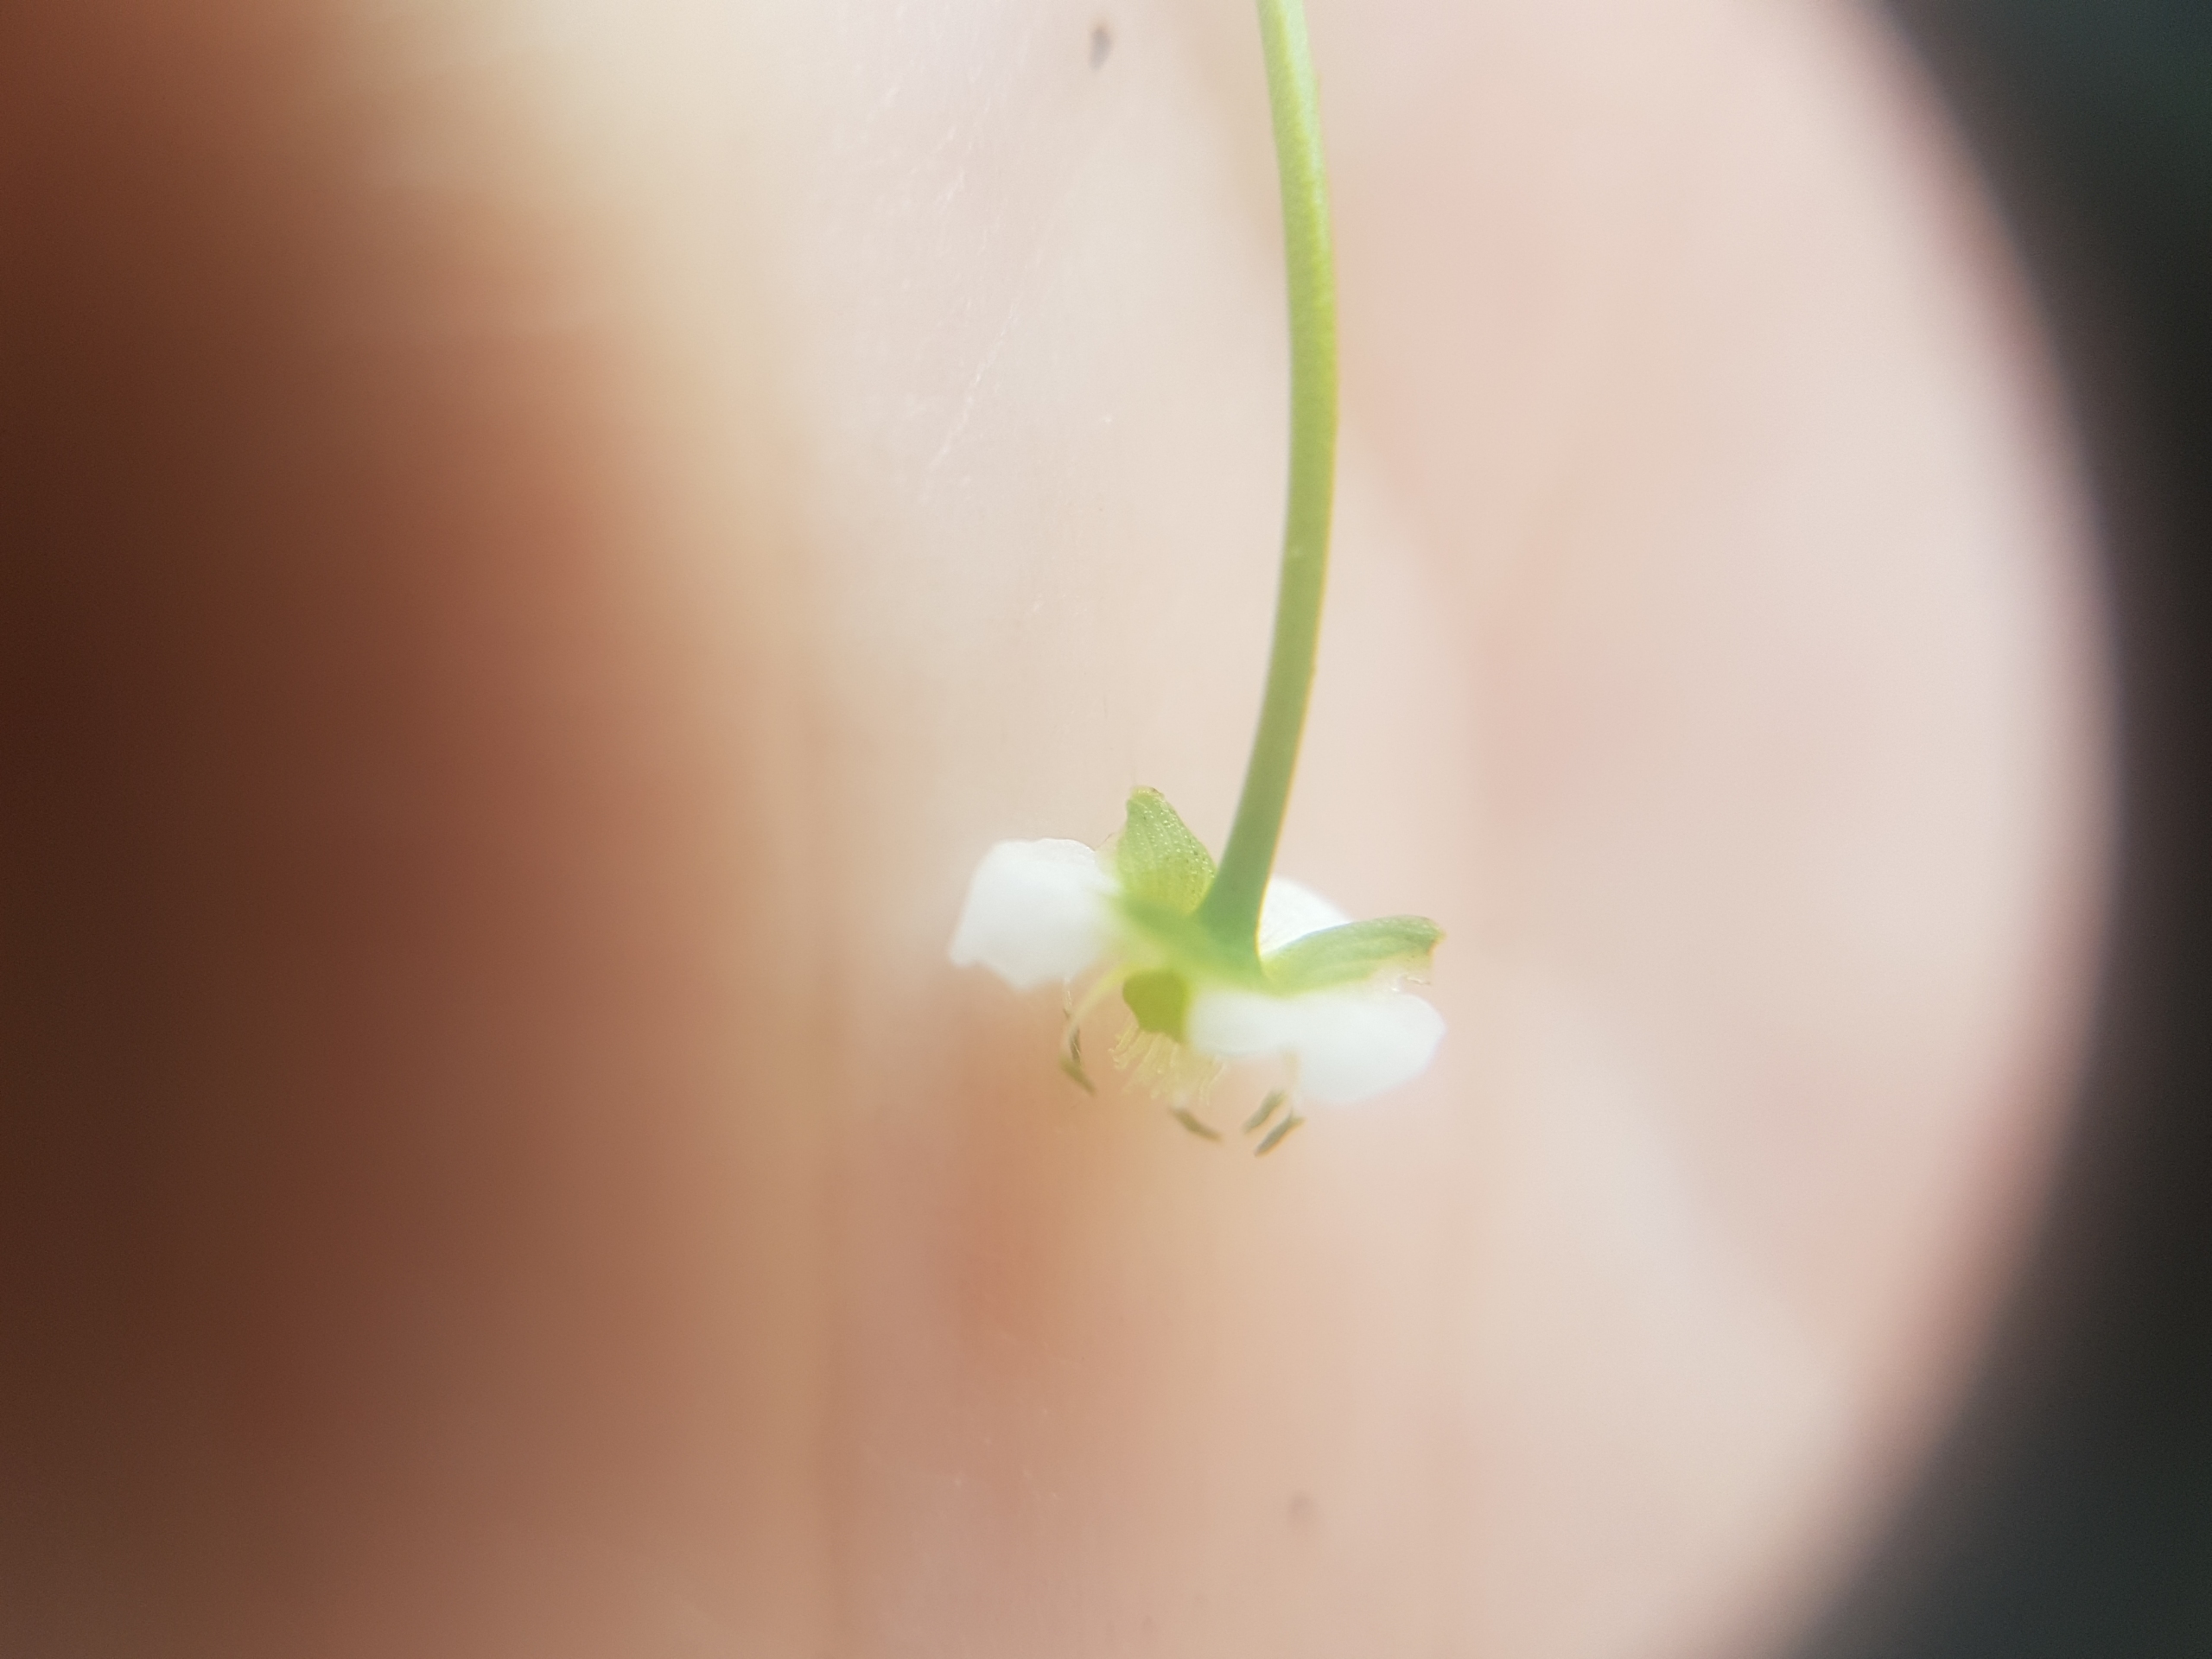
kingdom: Plantae
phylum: Tracheophyta
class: Liliopsida
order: Alismatales
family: Alismataceae
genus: Alisma
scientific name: Alisma plantago-aquatica
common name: Vejbred-skeblad
